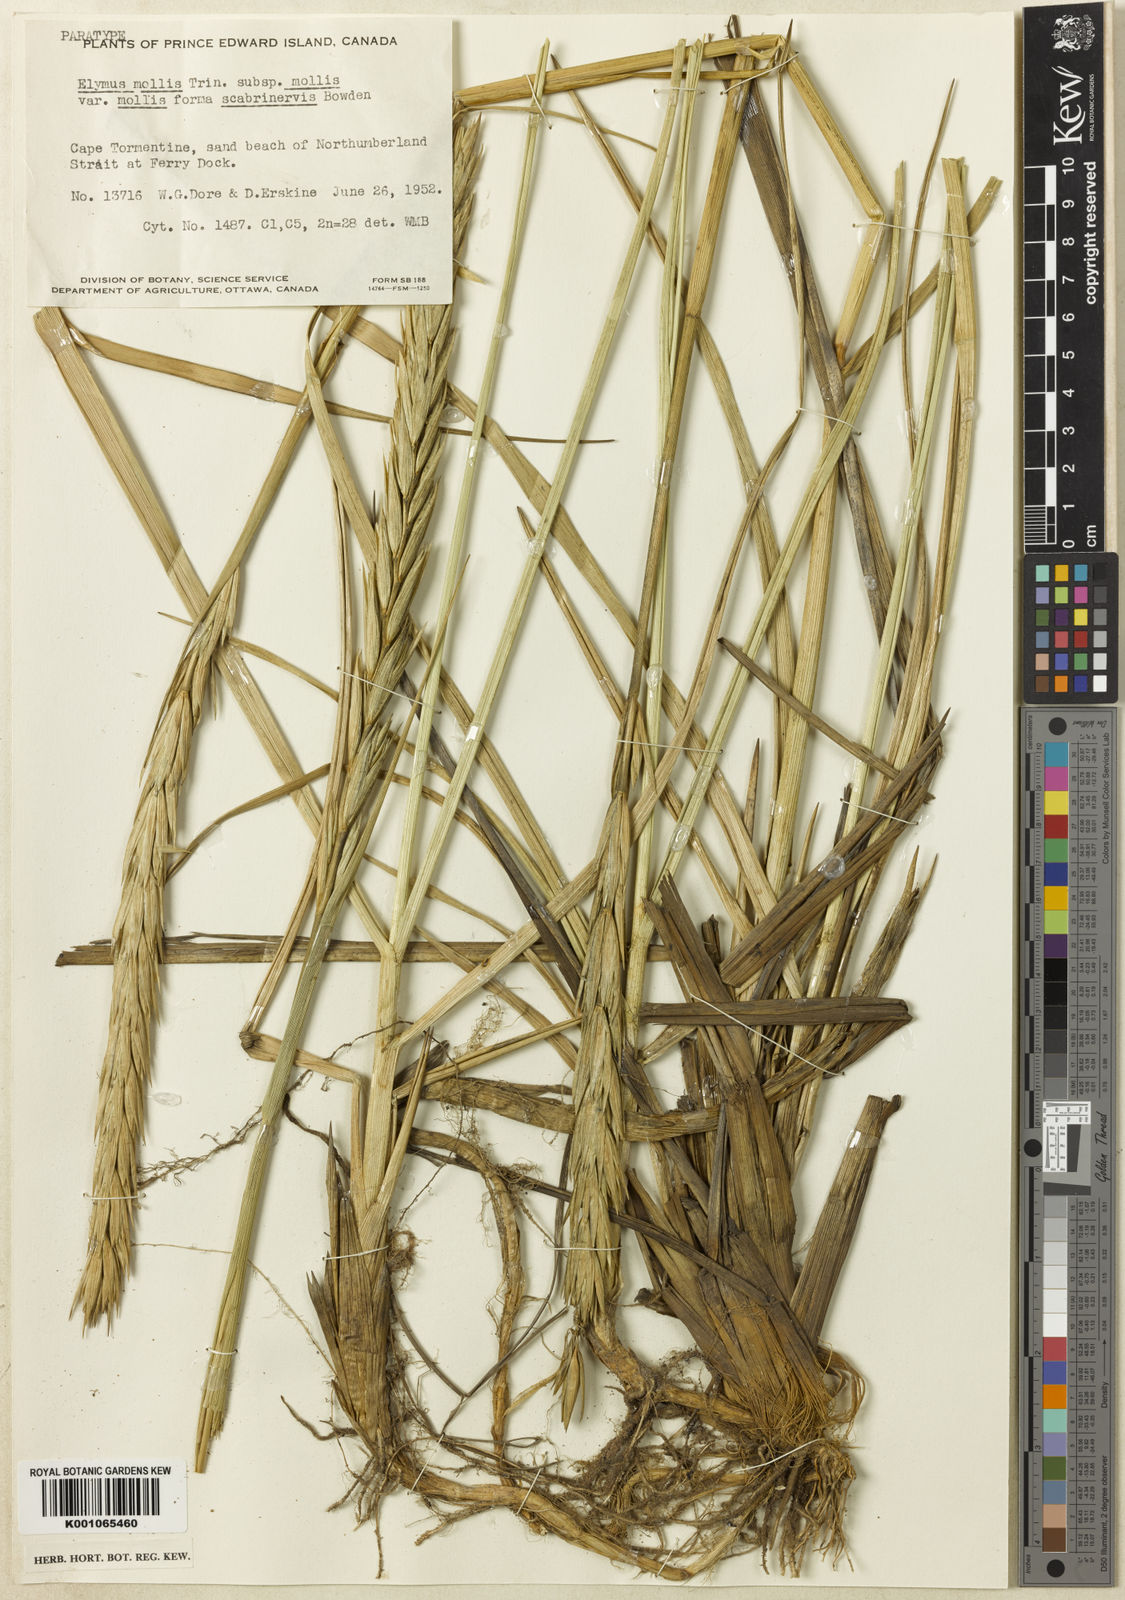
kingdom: Plantae
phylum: Tracheophyta
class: Liliopsida
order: Poales
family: Poaceae
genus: Leymus
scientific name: Leymus mollis
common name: American dune grass
